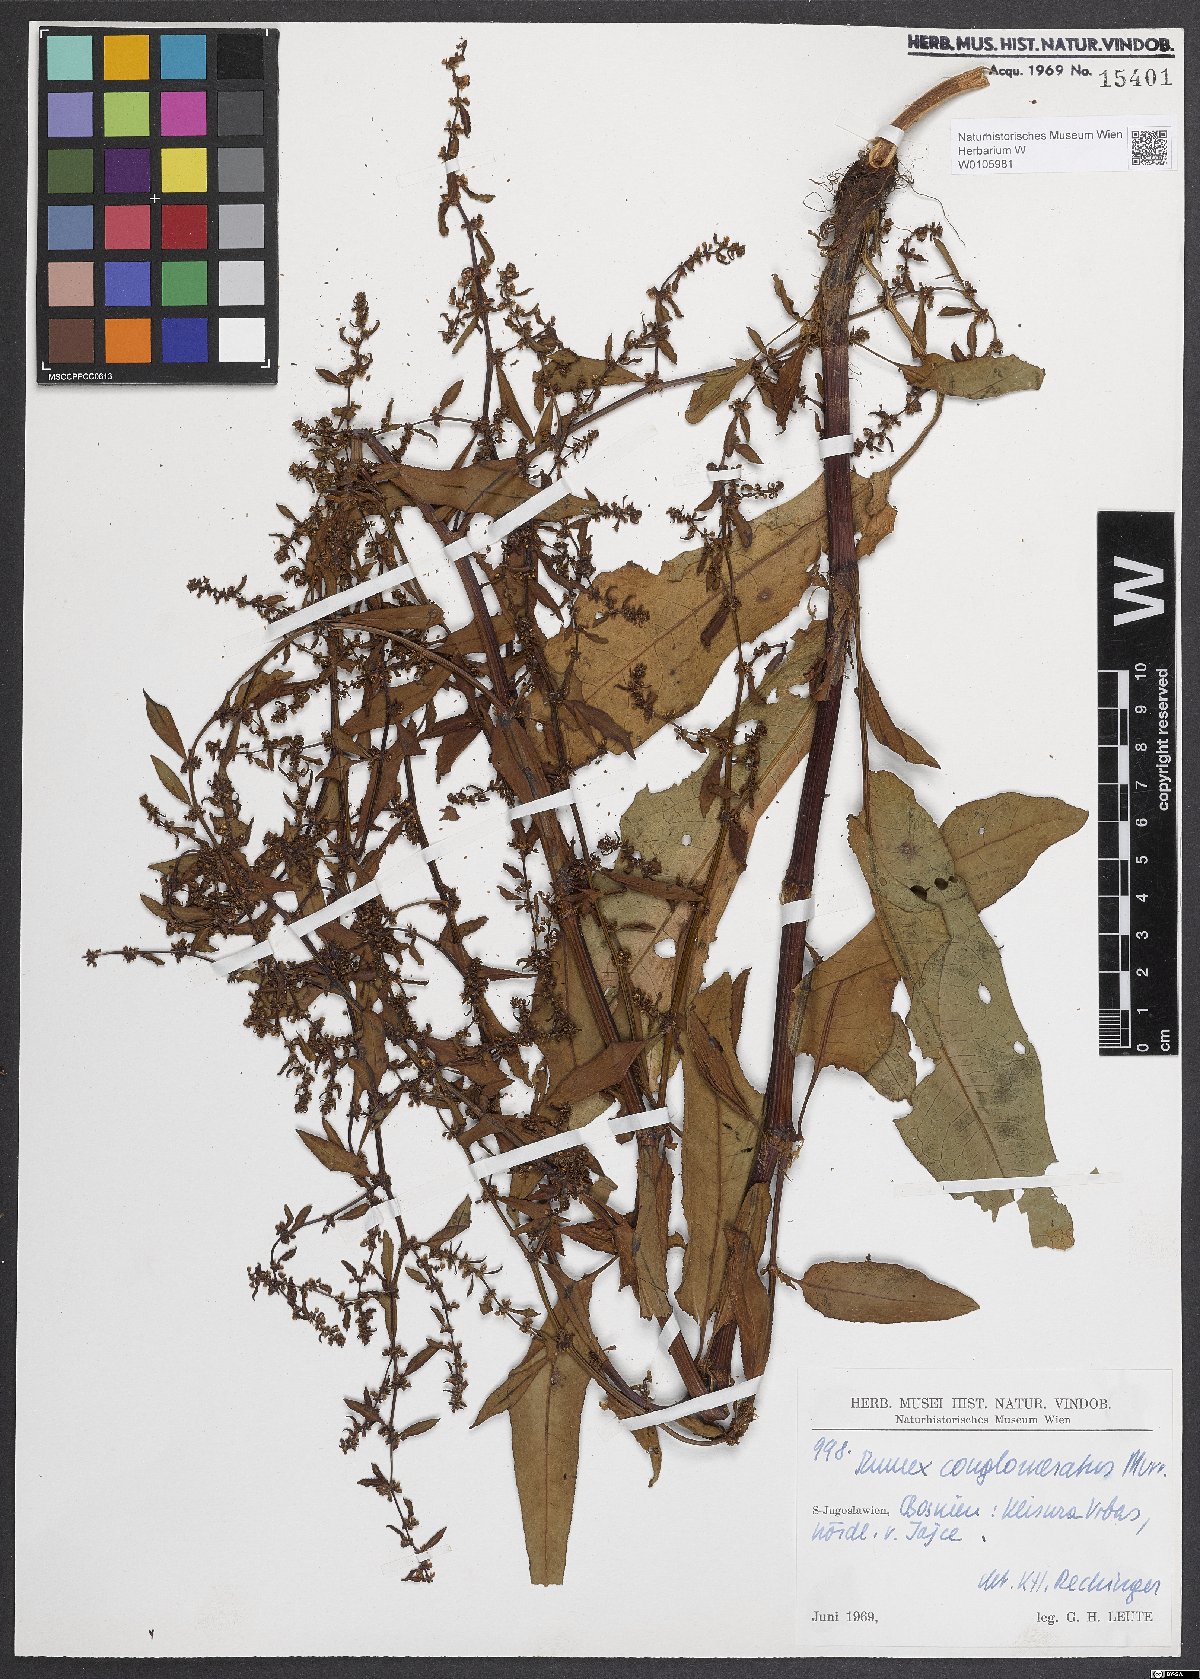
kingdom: Plantae
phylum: Tracheophyta
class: Magnoliopsida
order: Caryophyllales
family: Polygonaceae
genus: Rumex
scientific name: Rumex conglomeratus
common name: Clustered dock
